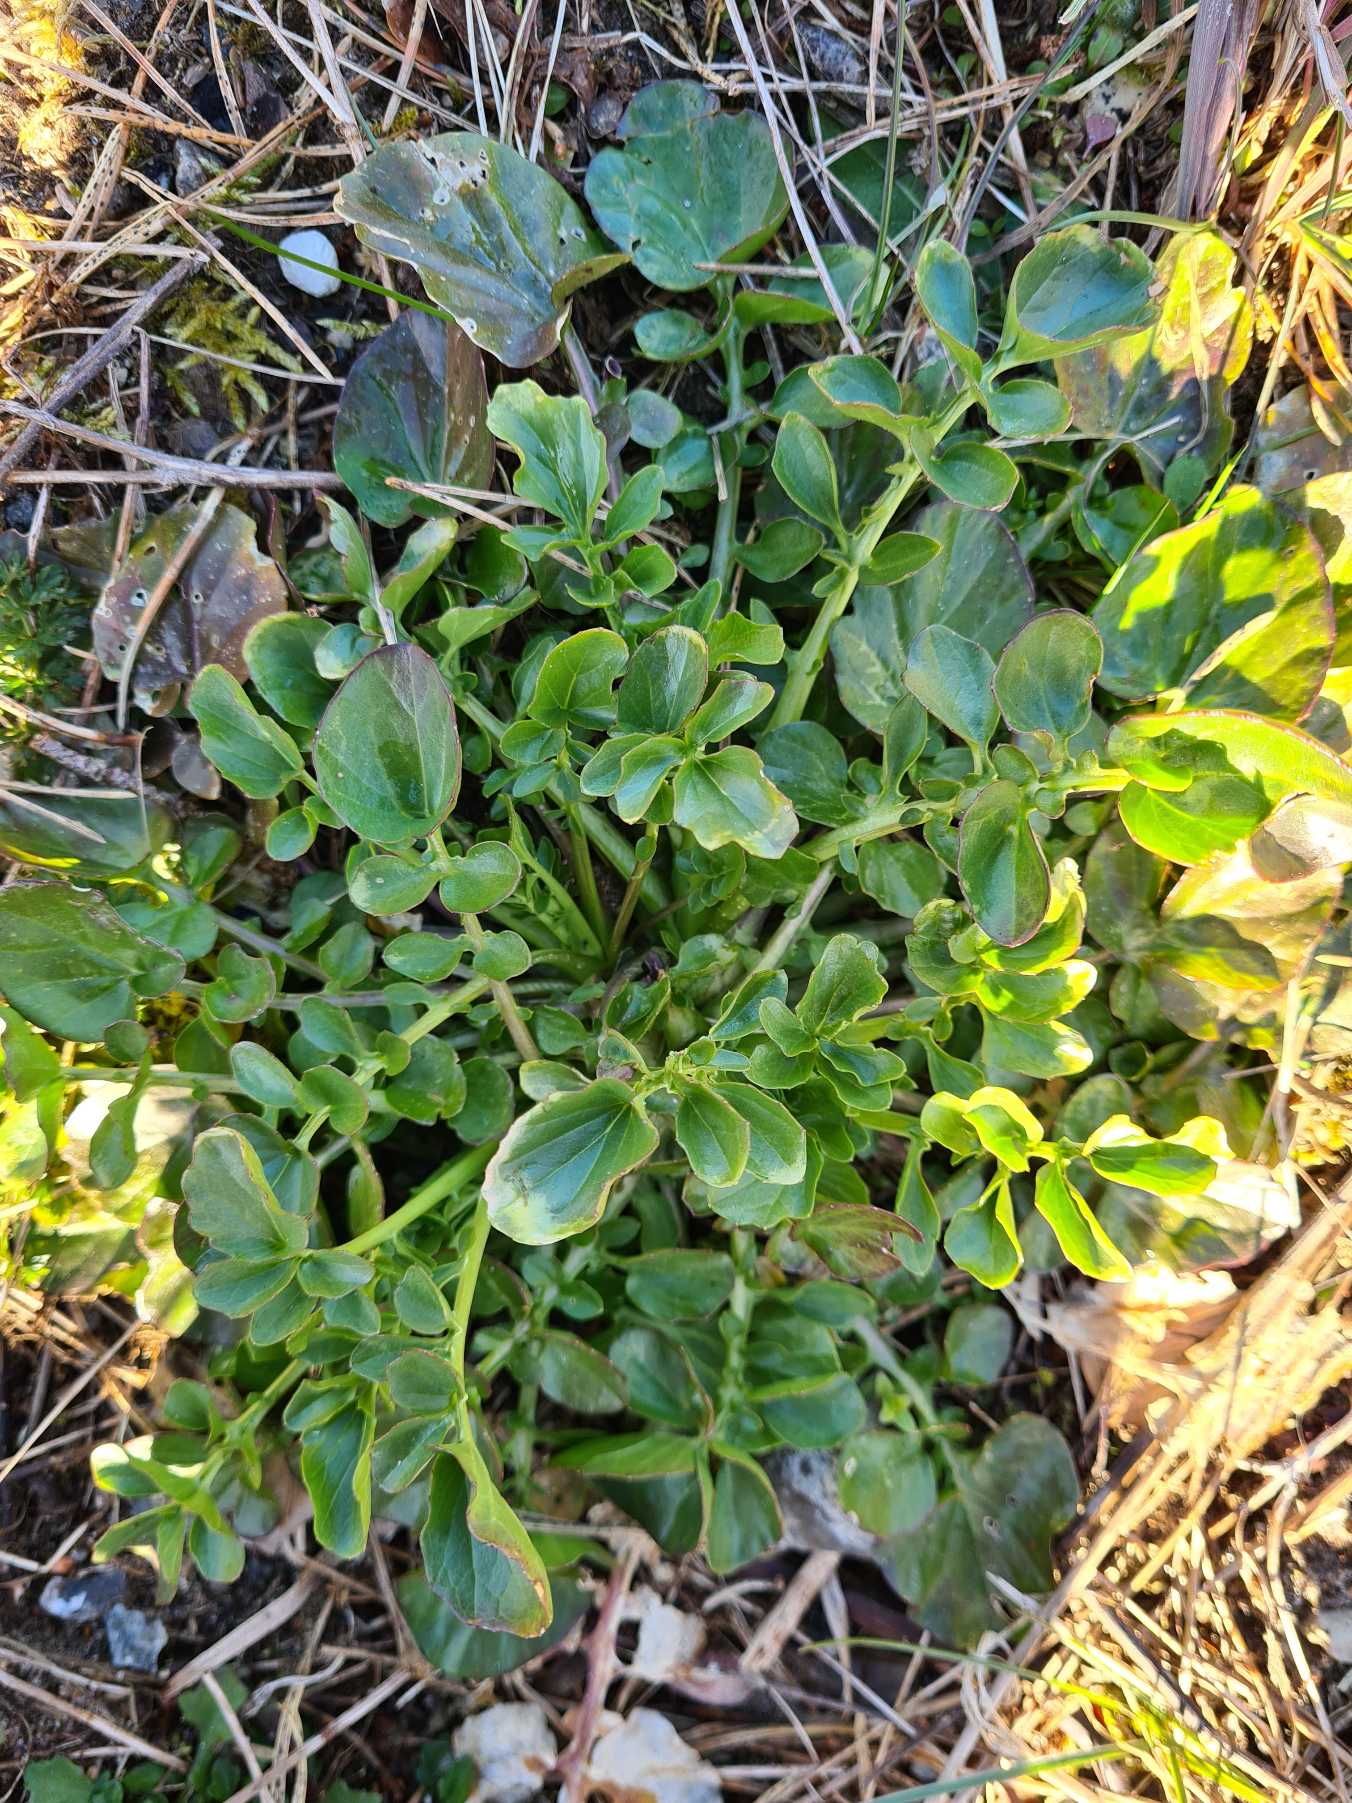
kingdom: Plantae
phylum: Tracheophyta
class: Magnoliopsida
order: Brassicales
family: Brassicaceae
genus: Barbarea
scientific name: Barbarea vulgaris
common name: Almindelig vinterkarse
